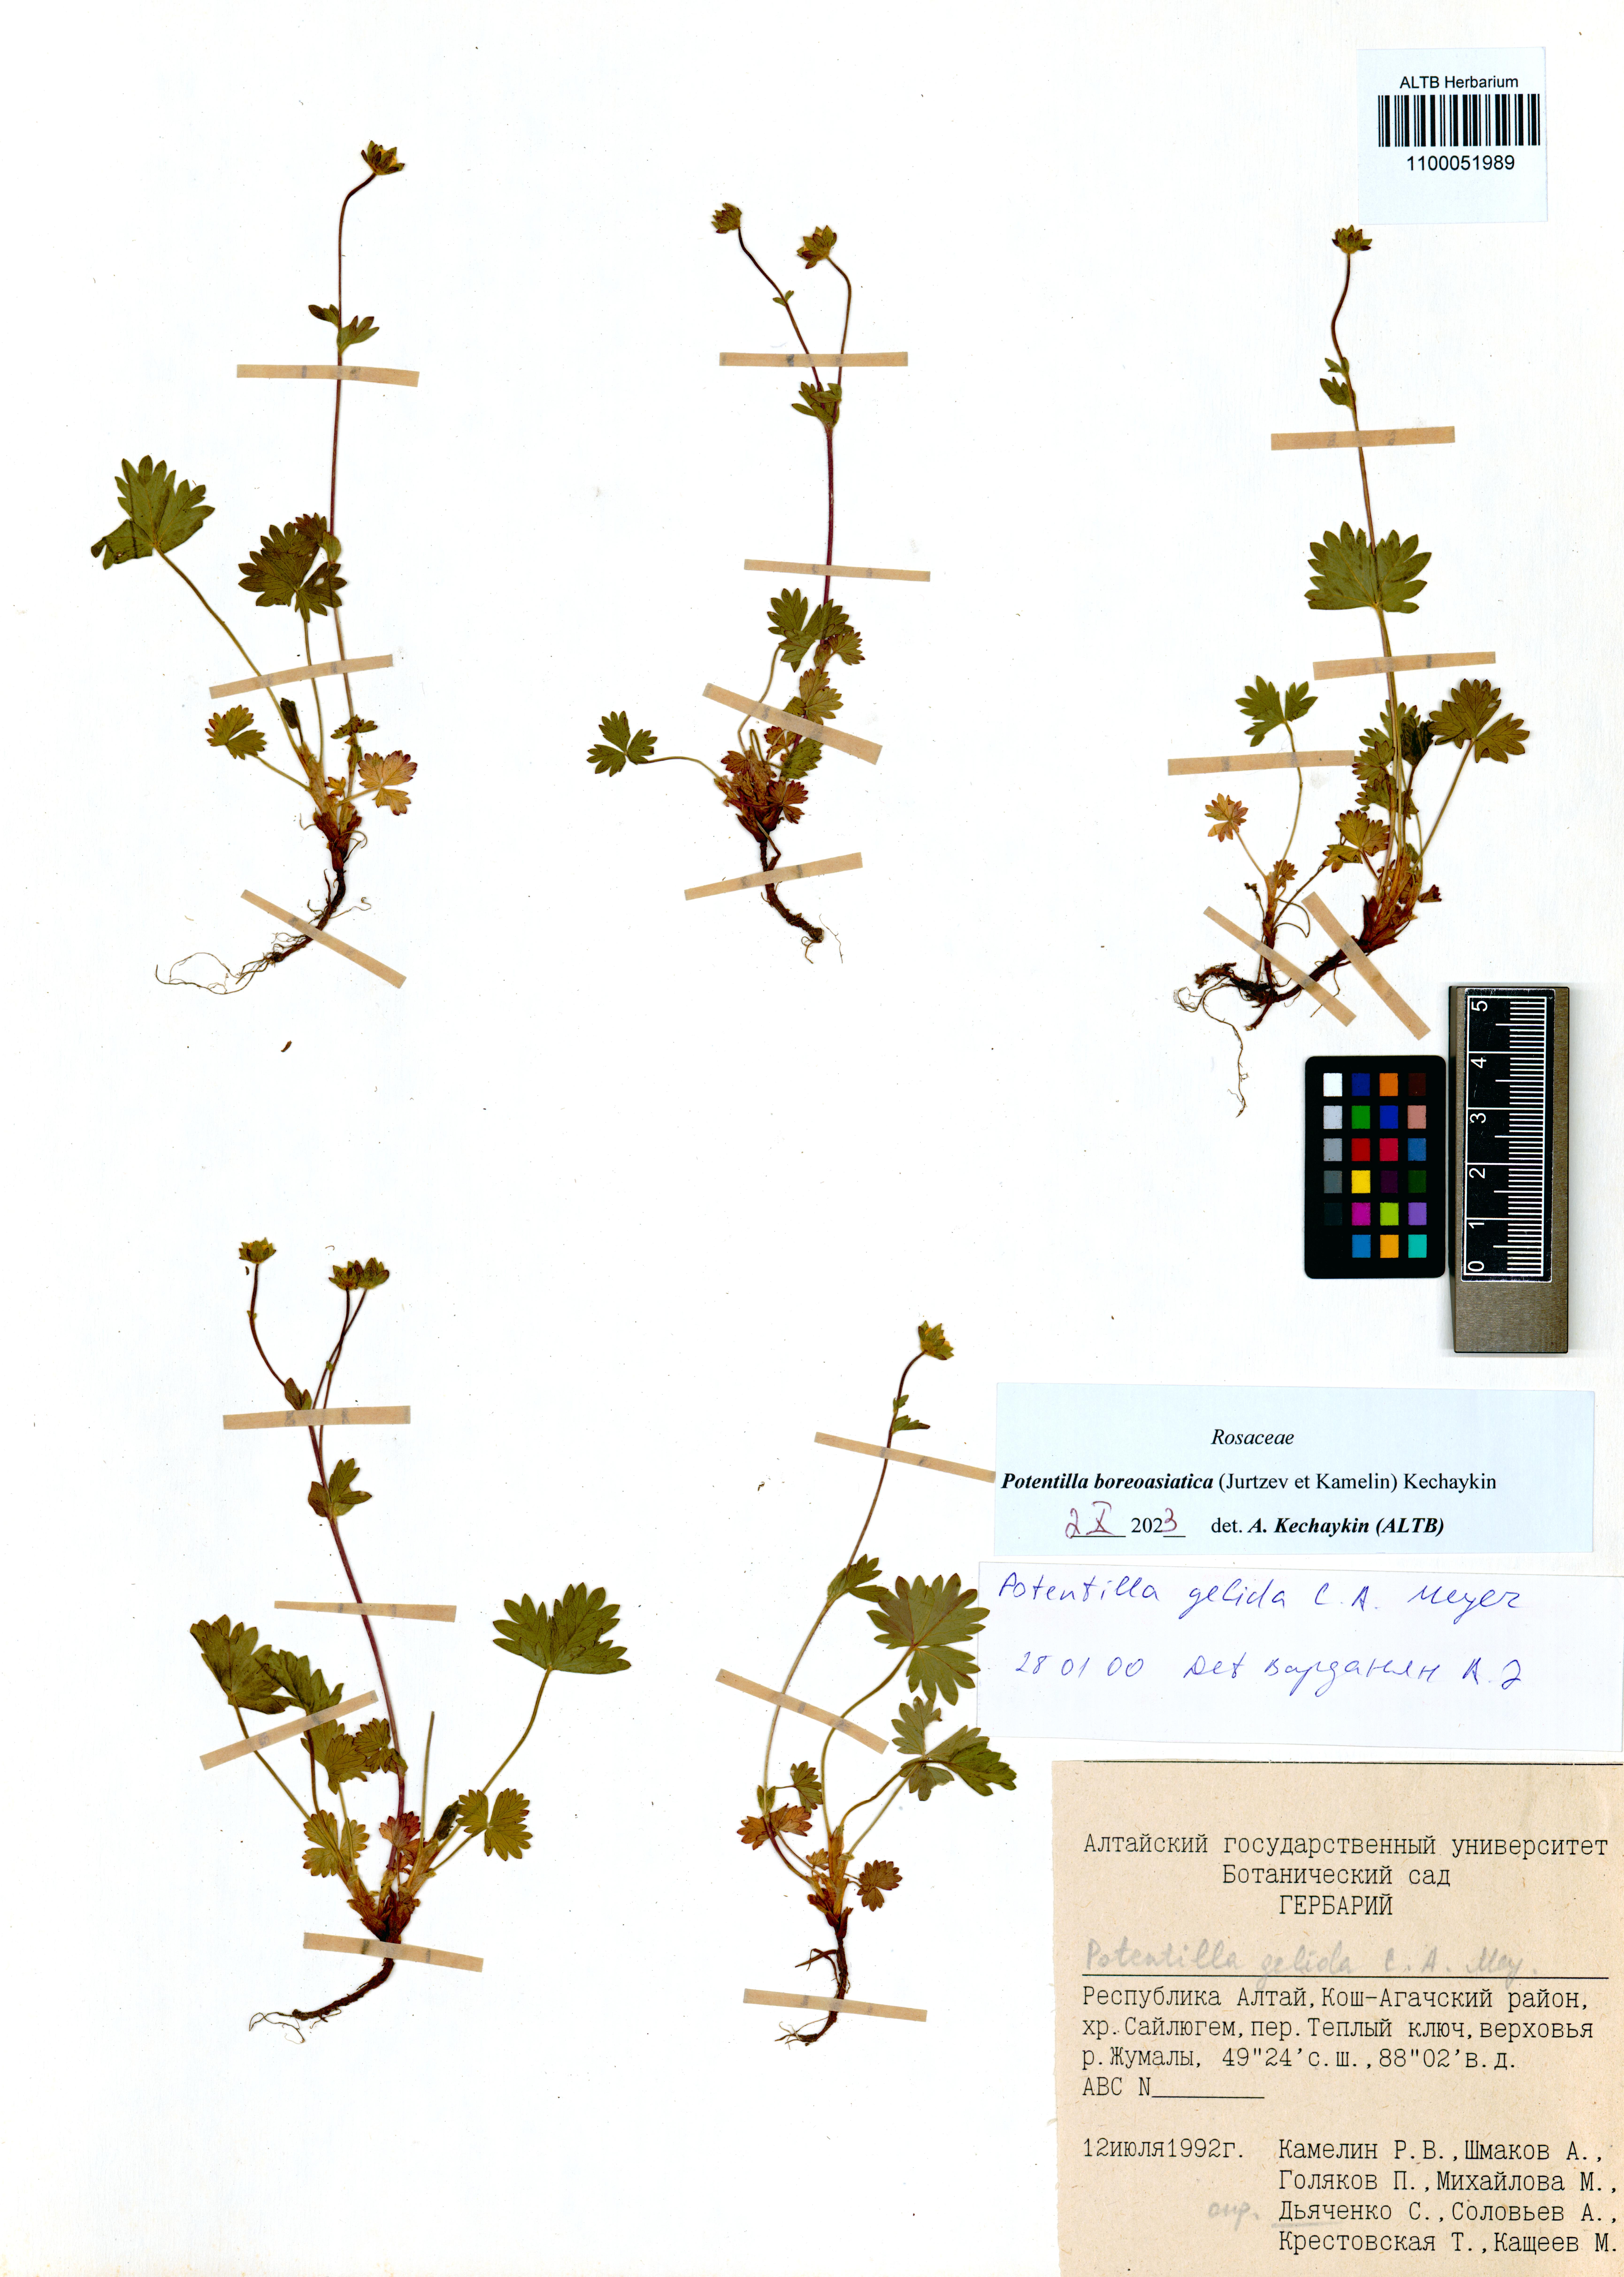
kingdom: Plantae
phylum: Tracheophyta
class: Magnoliopsida
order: Rosales
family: Rosaceae
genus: Potentilla
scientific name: Potentilla
